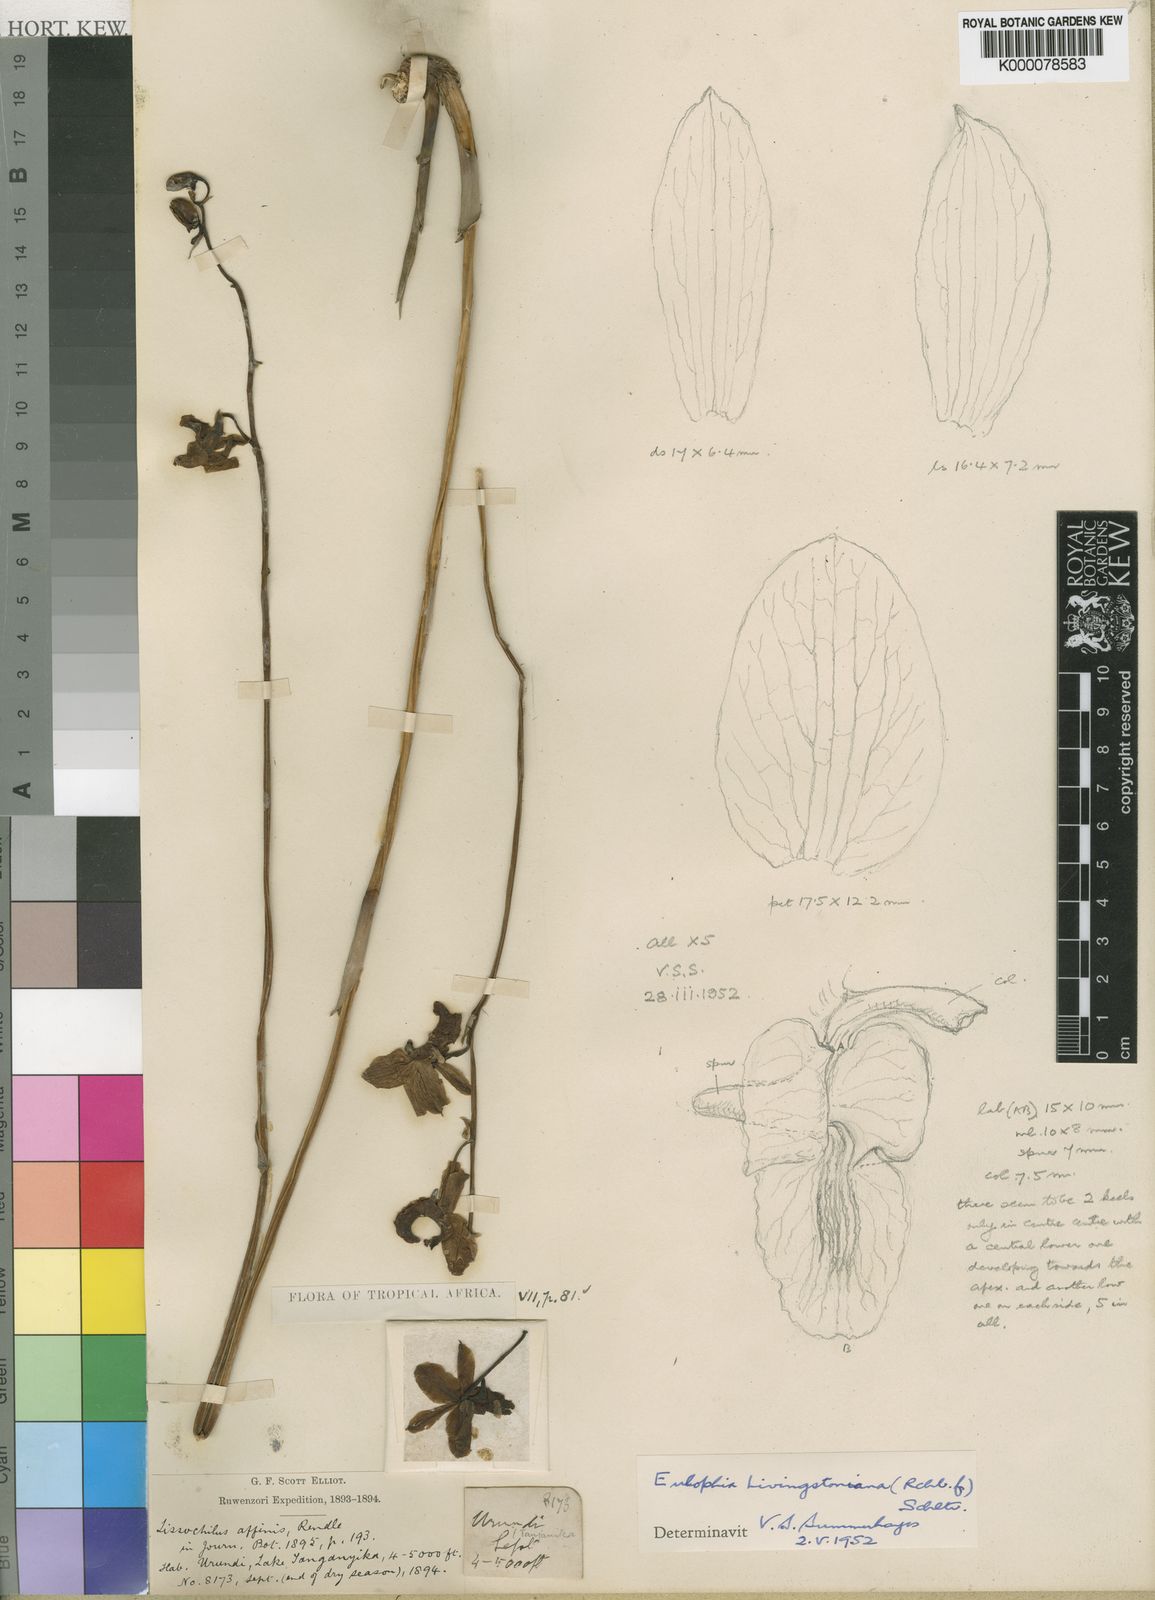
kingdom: Plantae
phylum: Tracheophyta
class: Liliopsida
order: Asparagales
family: Orchidaceae
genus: Eulophia
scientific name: Eulophia
